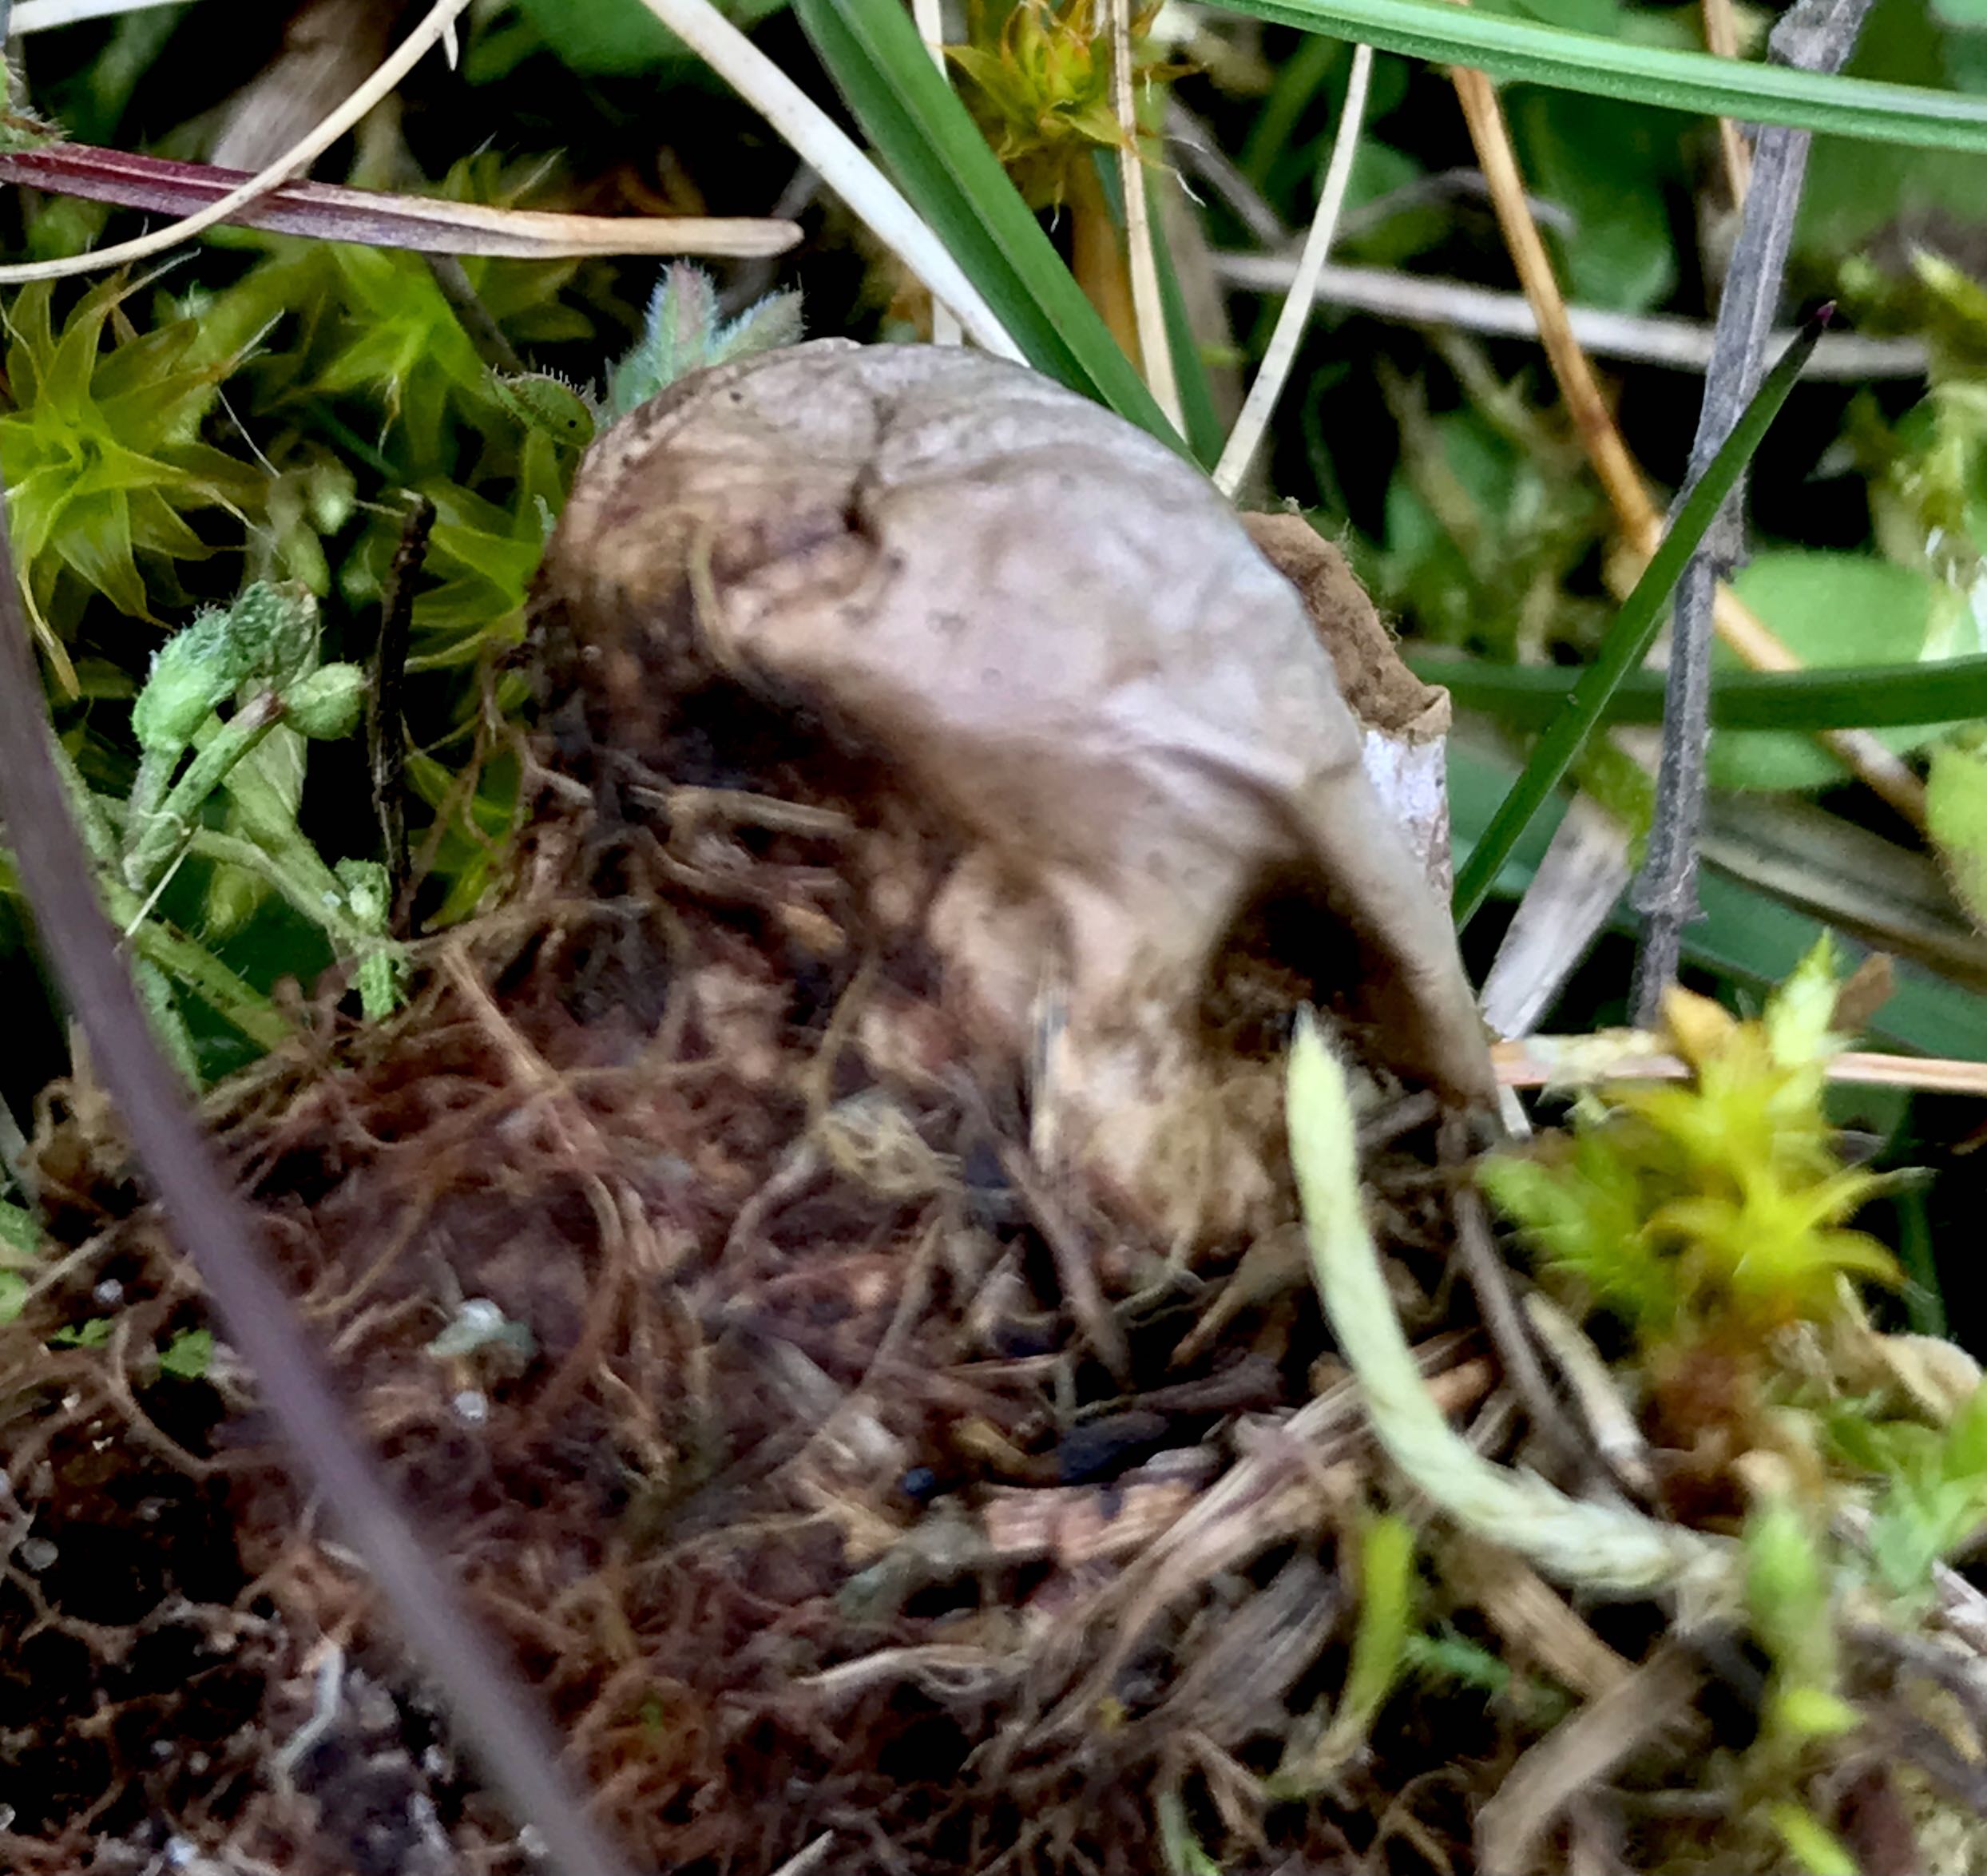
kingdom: Fungi
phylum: Basidiomycota
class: Agaricomycetes
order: Agaricales
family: Agaricaceae
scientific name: Agaricaceae
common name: champignonfamilien
